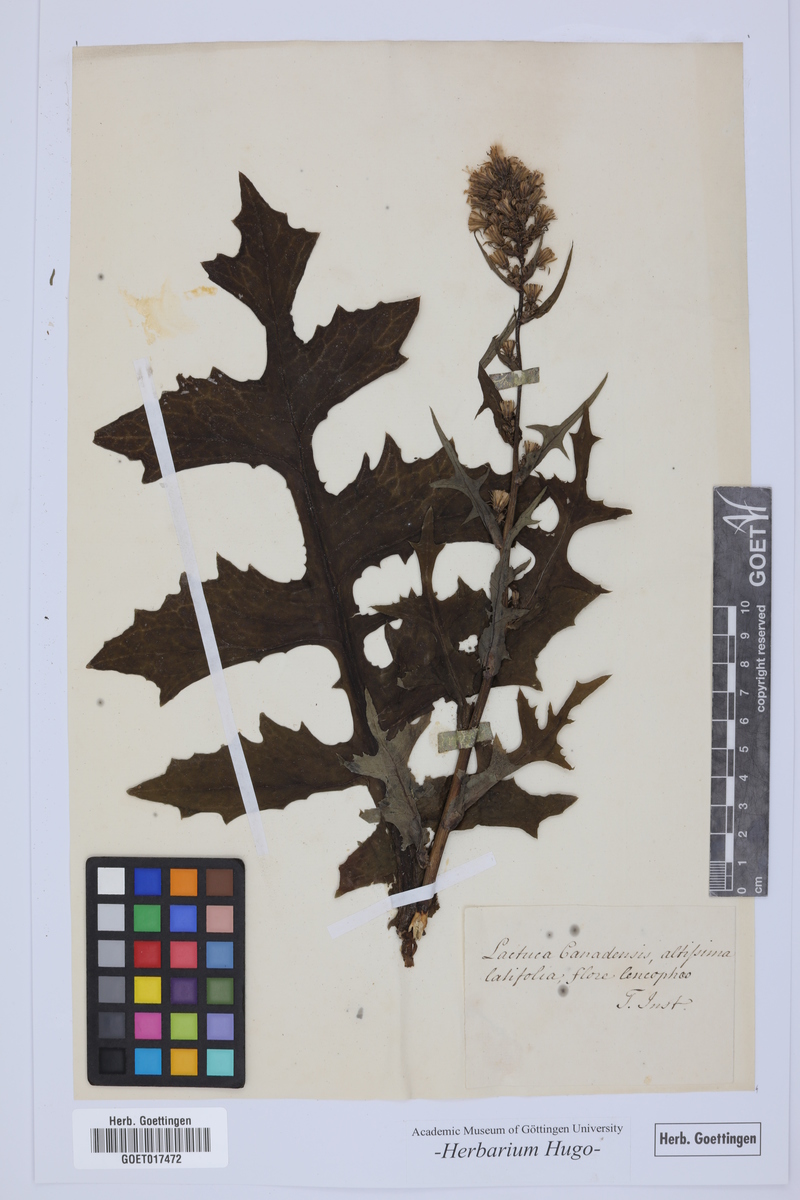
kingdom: Plantae
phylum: Tracheophyta
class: Magnoliopsida
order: Asterales
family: Asteraceae
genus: Lactuca
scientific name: Lactuca
